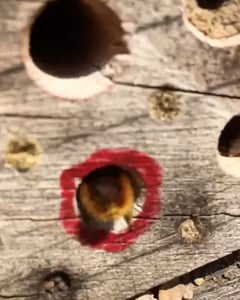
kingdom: Animalia
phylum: Arthropoda
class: Insecta
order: Hymenoptera
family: Megachilidae
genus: Osmia
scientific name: Osmia cornuta
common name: Mason bee
